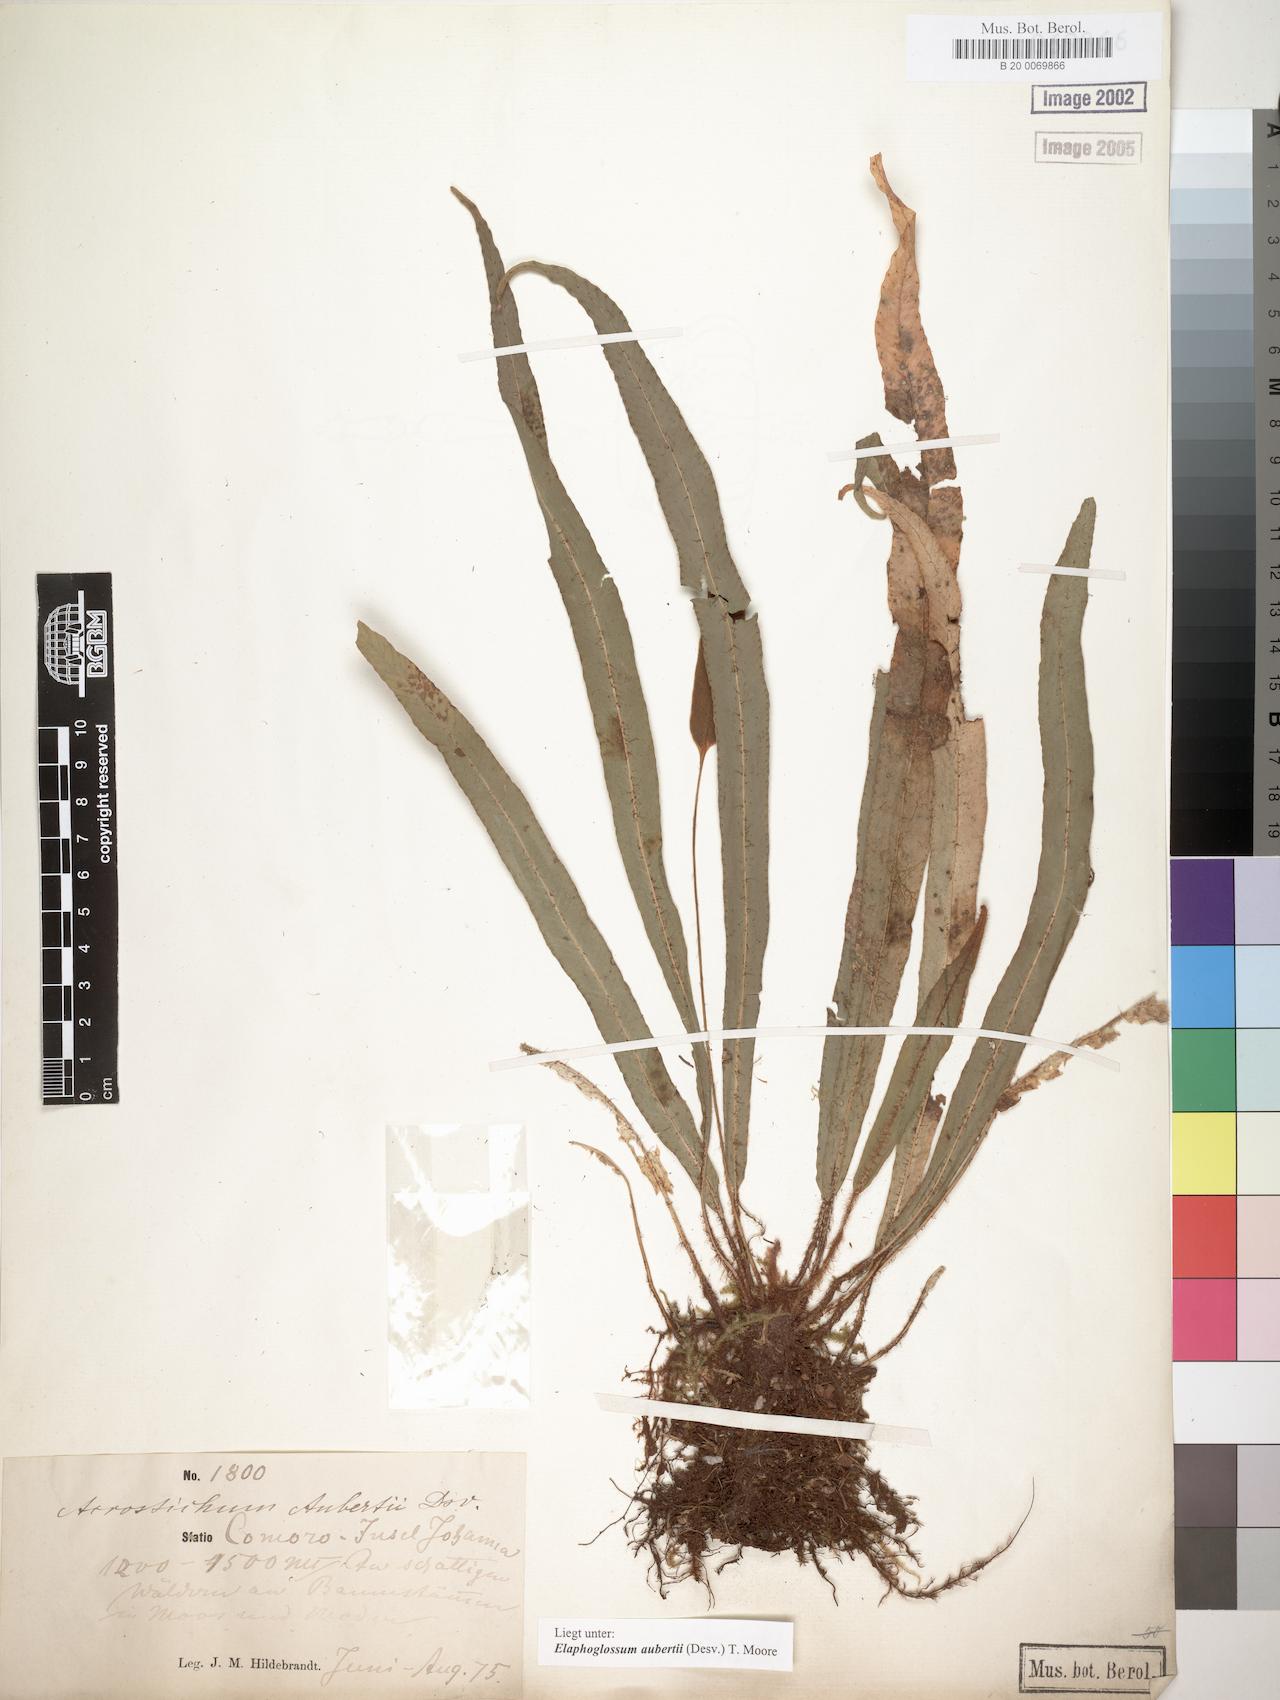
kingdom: Plantae
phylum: Tracheophyta
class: Polypodiopsida
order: Polypodiales
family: Dryopteridaceae
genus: Elaphoglossum
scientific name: Elaphoglossum aubertii
